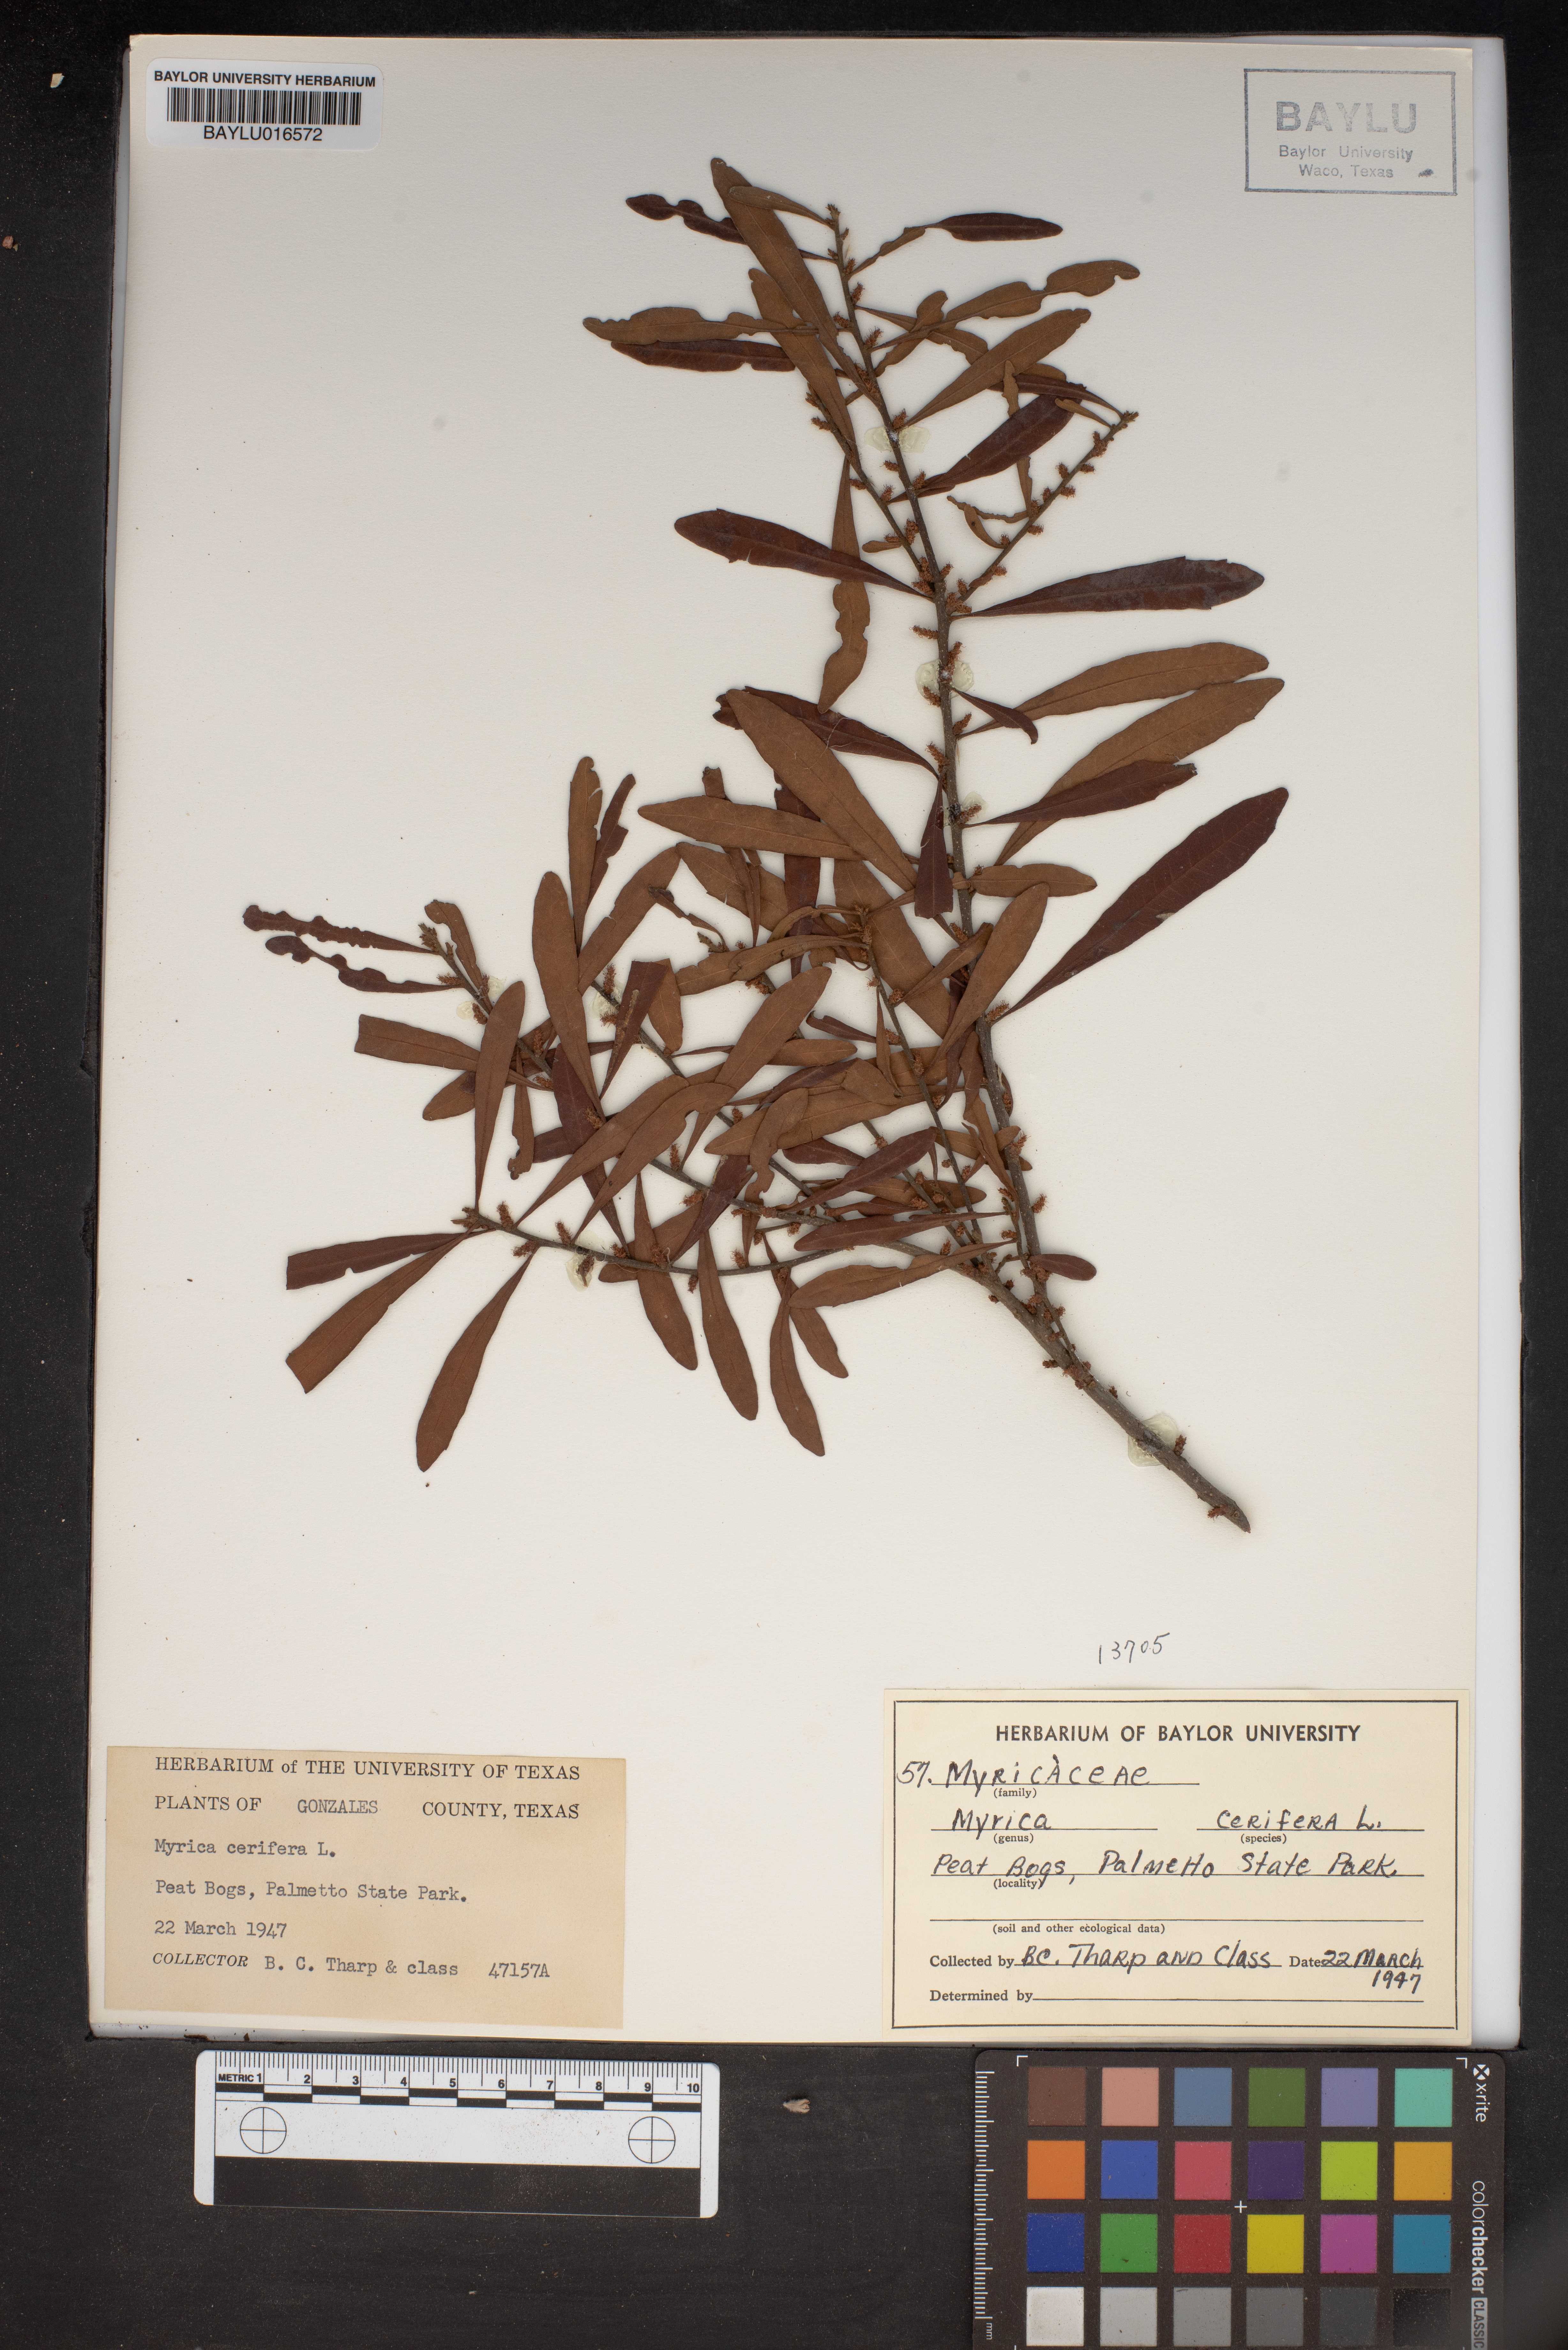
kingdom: Plantae
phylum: Tracheophyta
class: Magnoliopsida
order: Fagales
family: Myricaceae
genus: Morella
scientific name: Morella cerifera
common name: Wax myrtle
